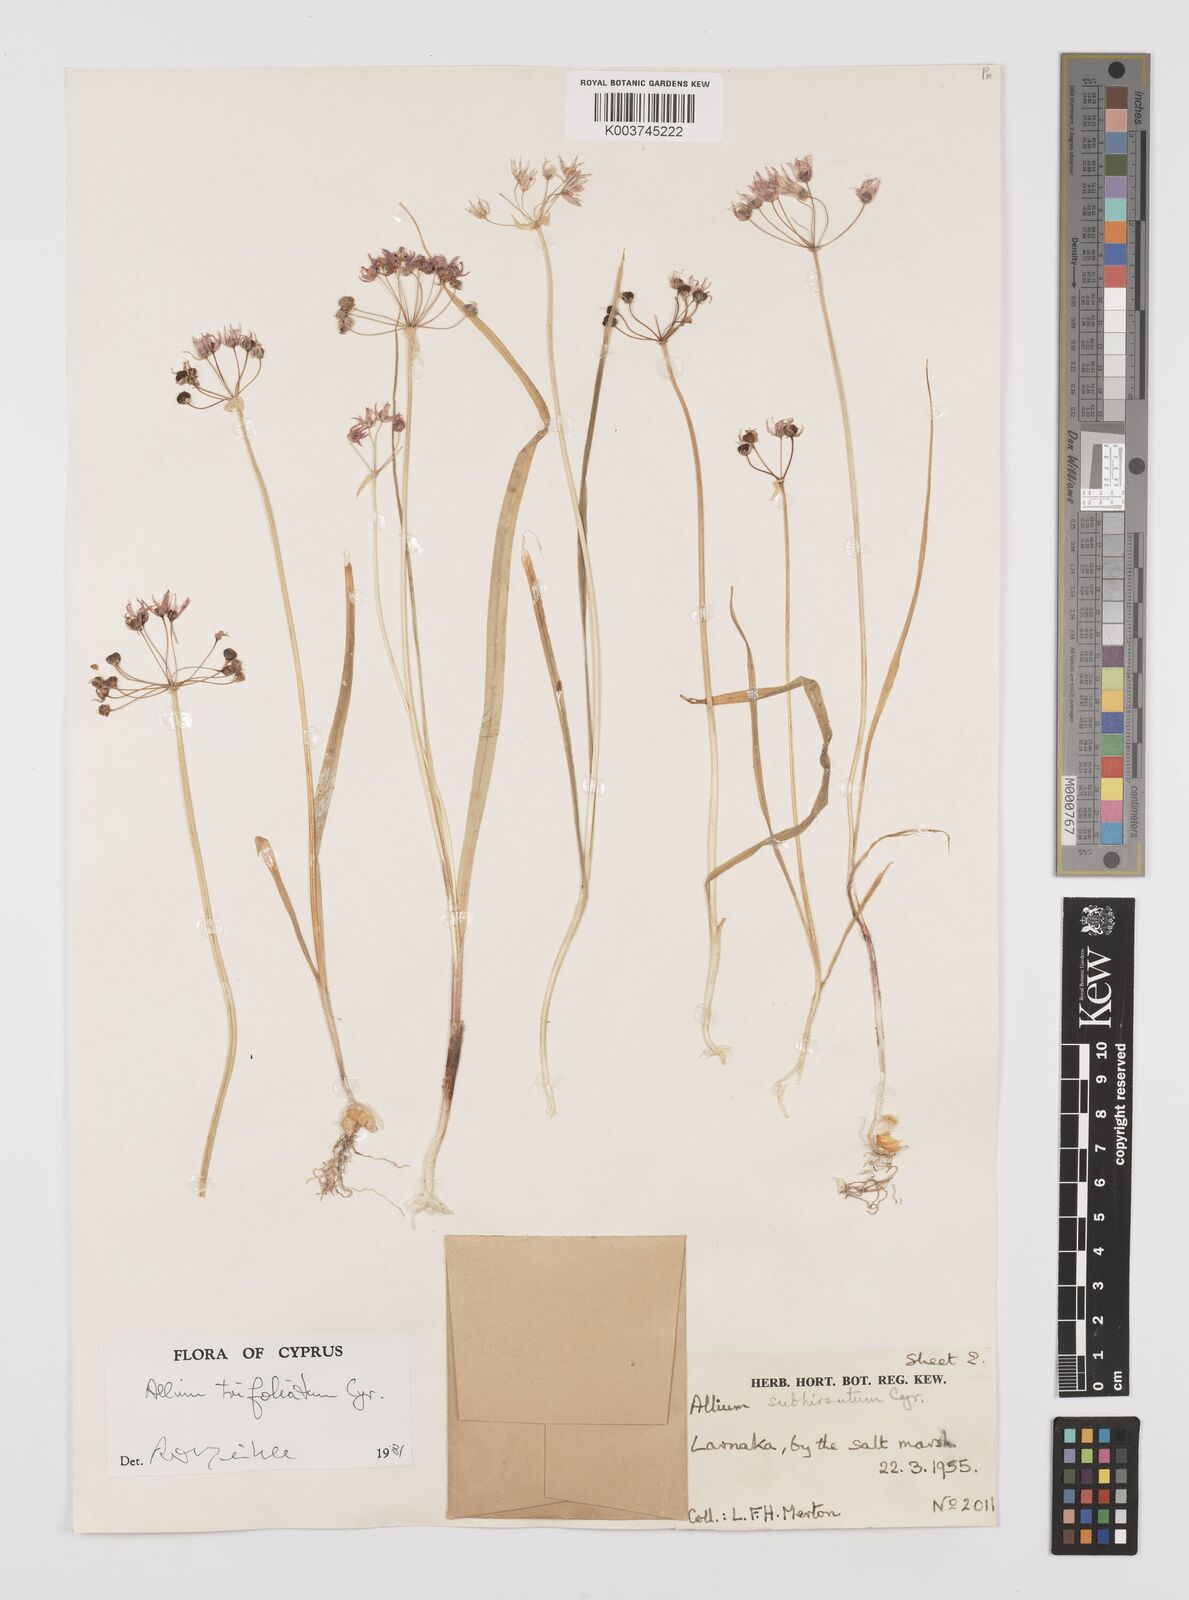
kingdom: Plantae
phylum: Tracheophyta
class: Liliopsida
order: Asparagales
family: Amaryllidaceae
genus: Allium
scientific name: Allium trifoliatum
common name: Pink garlic
